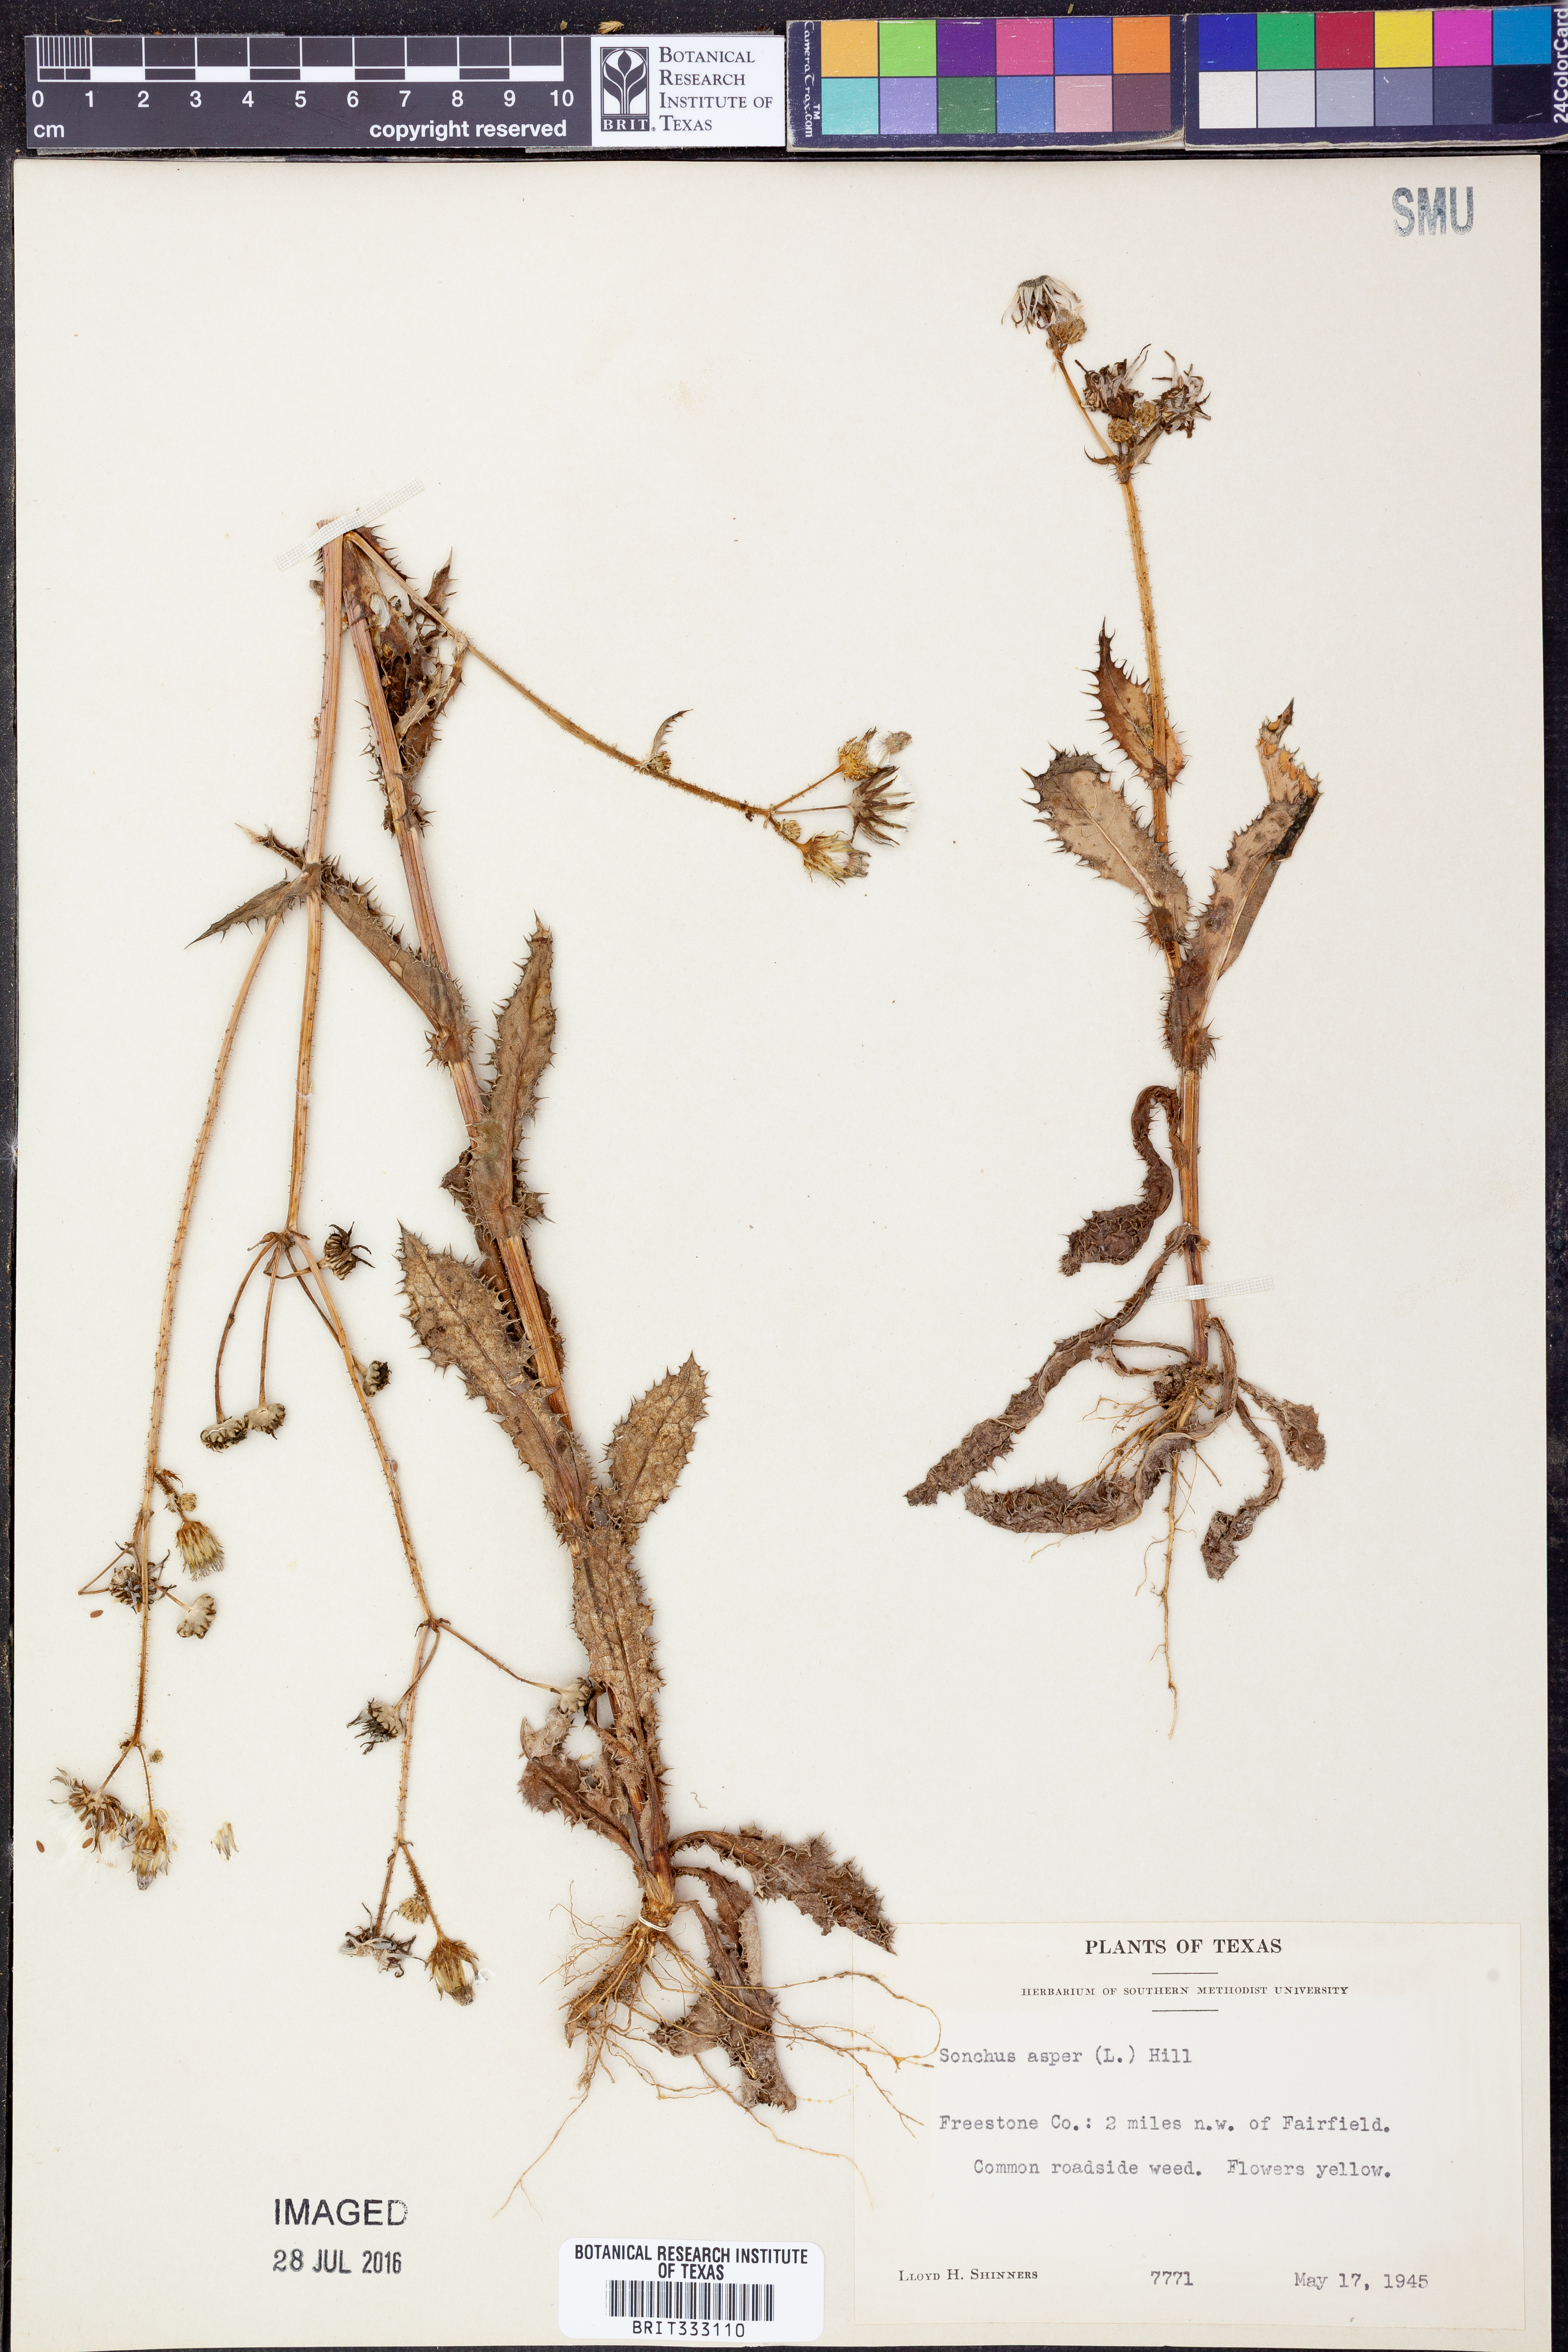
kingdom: Plantae
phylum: Tracheophyta
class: Magnoliopsida
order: Asterales
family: Asteraceae
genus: Sonchus
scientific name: Sonchus asper
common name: Prickly sow-thistle
